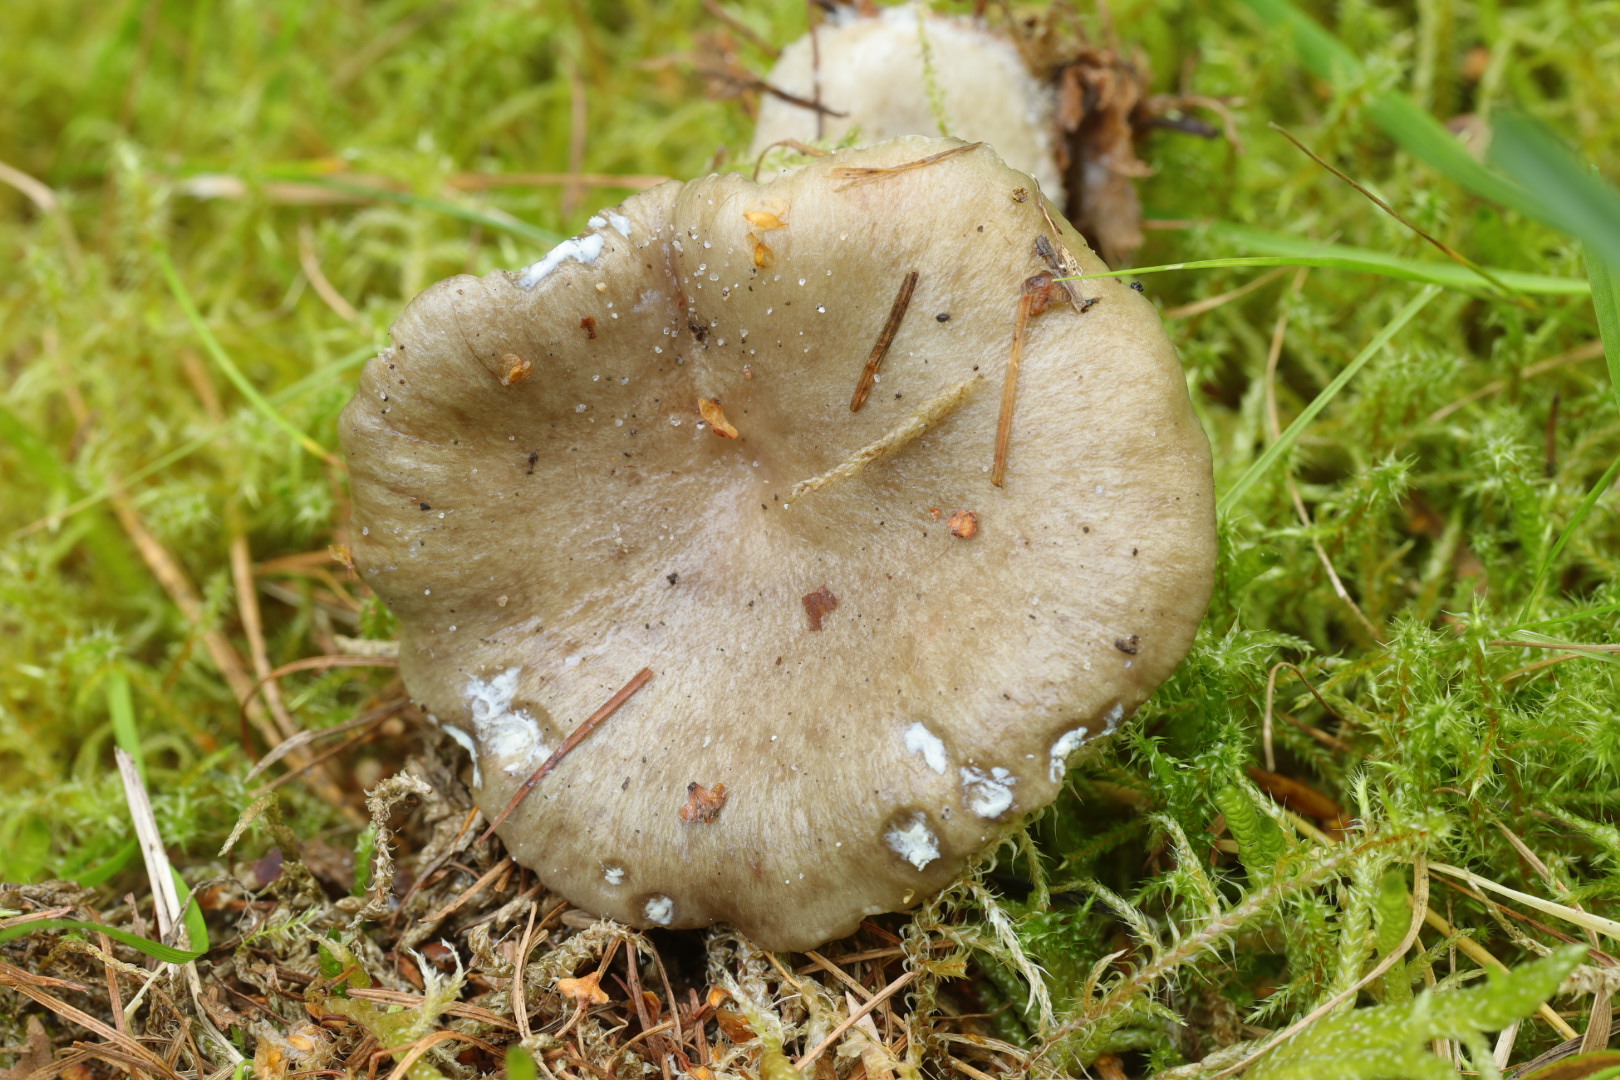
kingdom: Fungi
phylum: Basidiomycota
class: Agaricomycetes
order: Russulales
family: Russulaceae
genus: Lactarius
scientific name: Lactarius blennius
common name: dråbeplettet mælkehat
